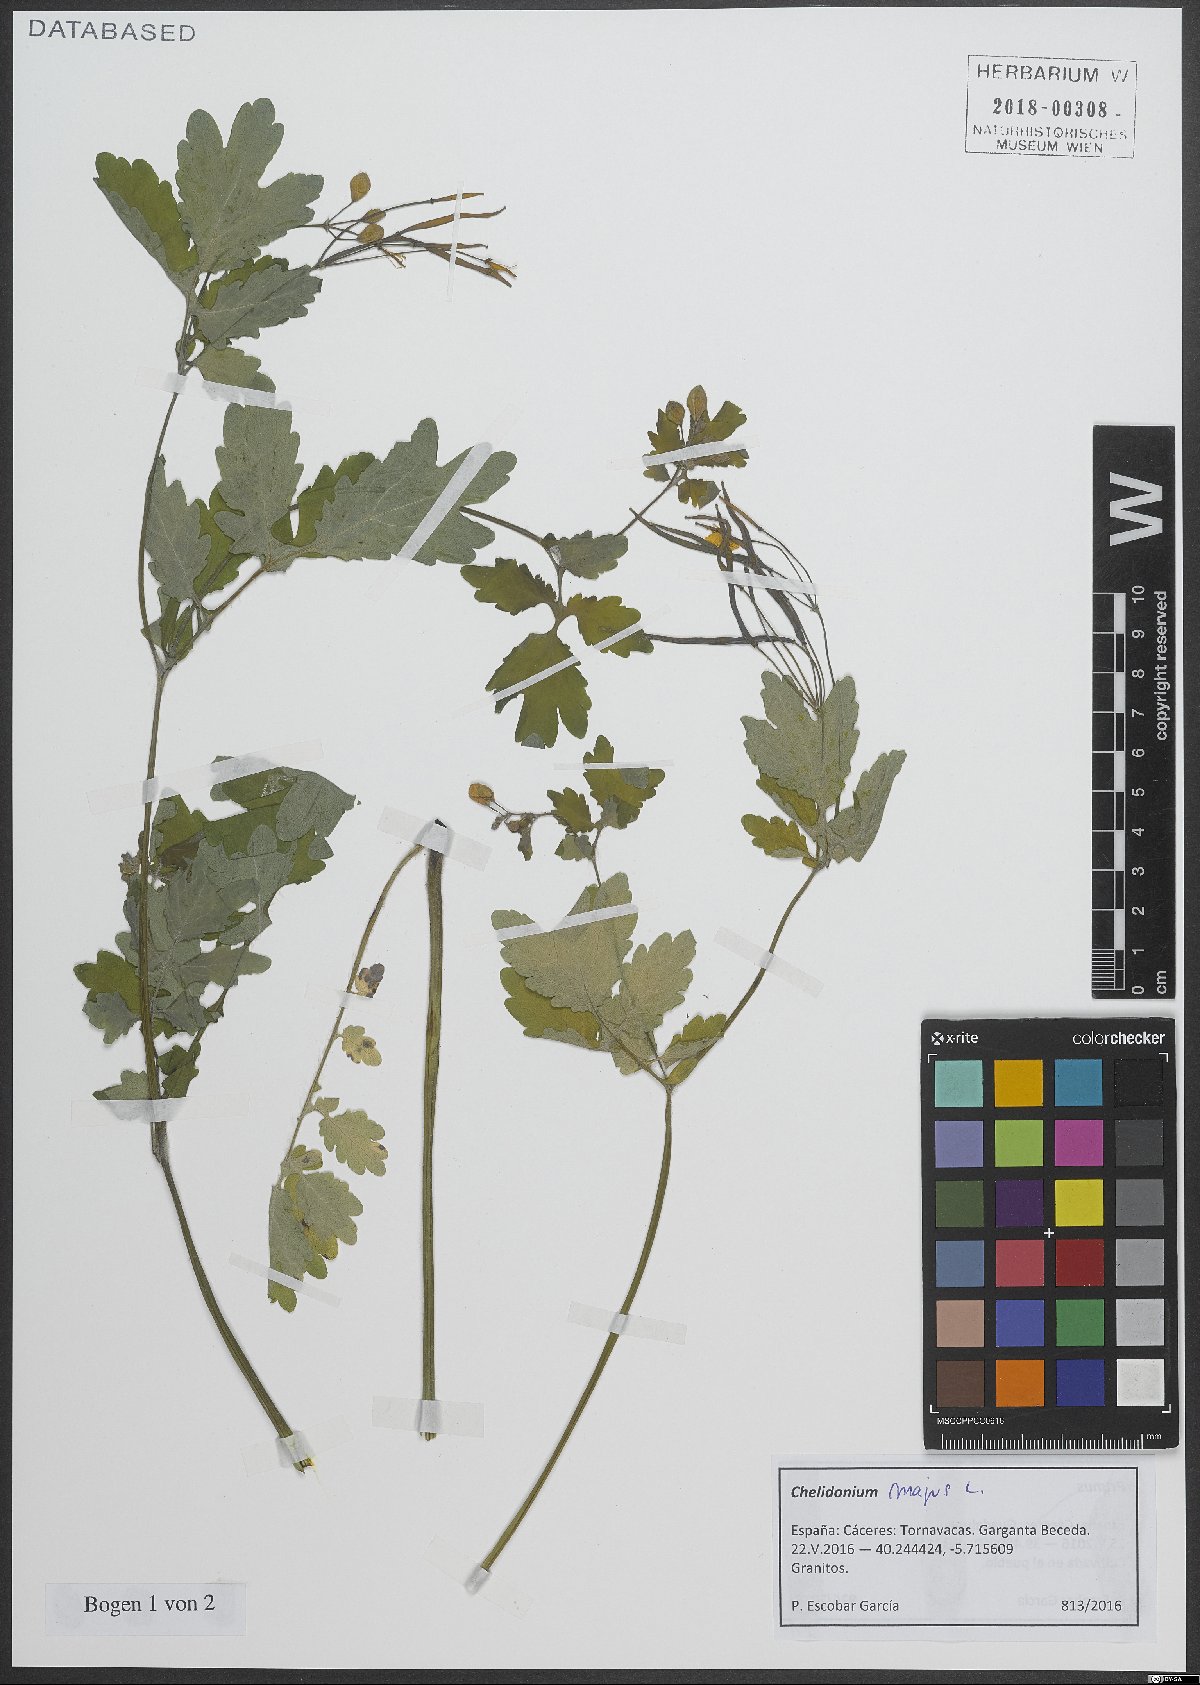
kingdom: Plantae
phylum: Tracheophyta
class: Magnoliopsida
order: Ranunculales
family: Papaveraceae
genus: Chelidonium
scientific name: Chelidonium majus
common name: Greater celandine
